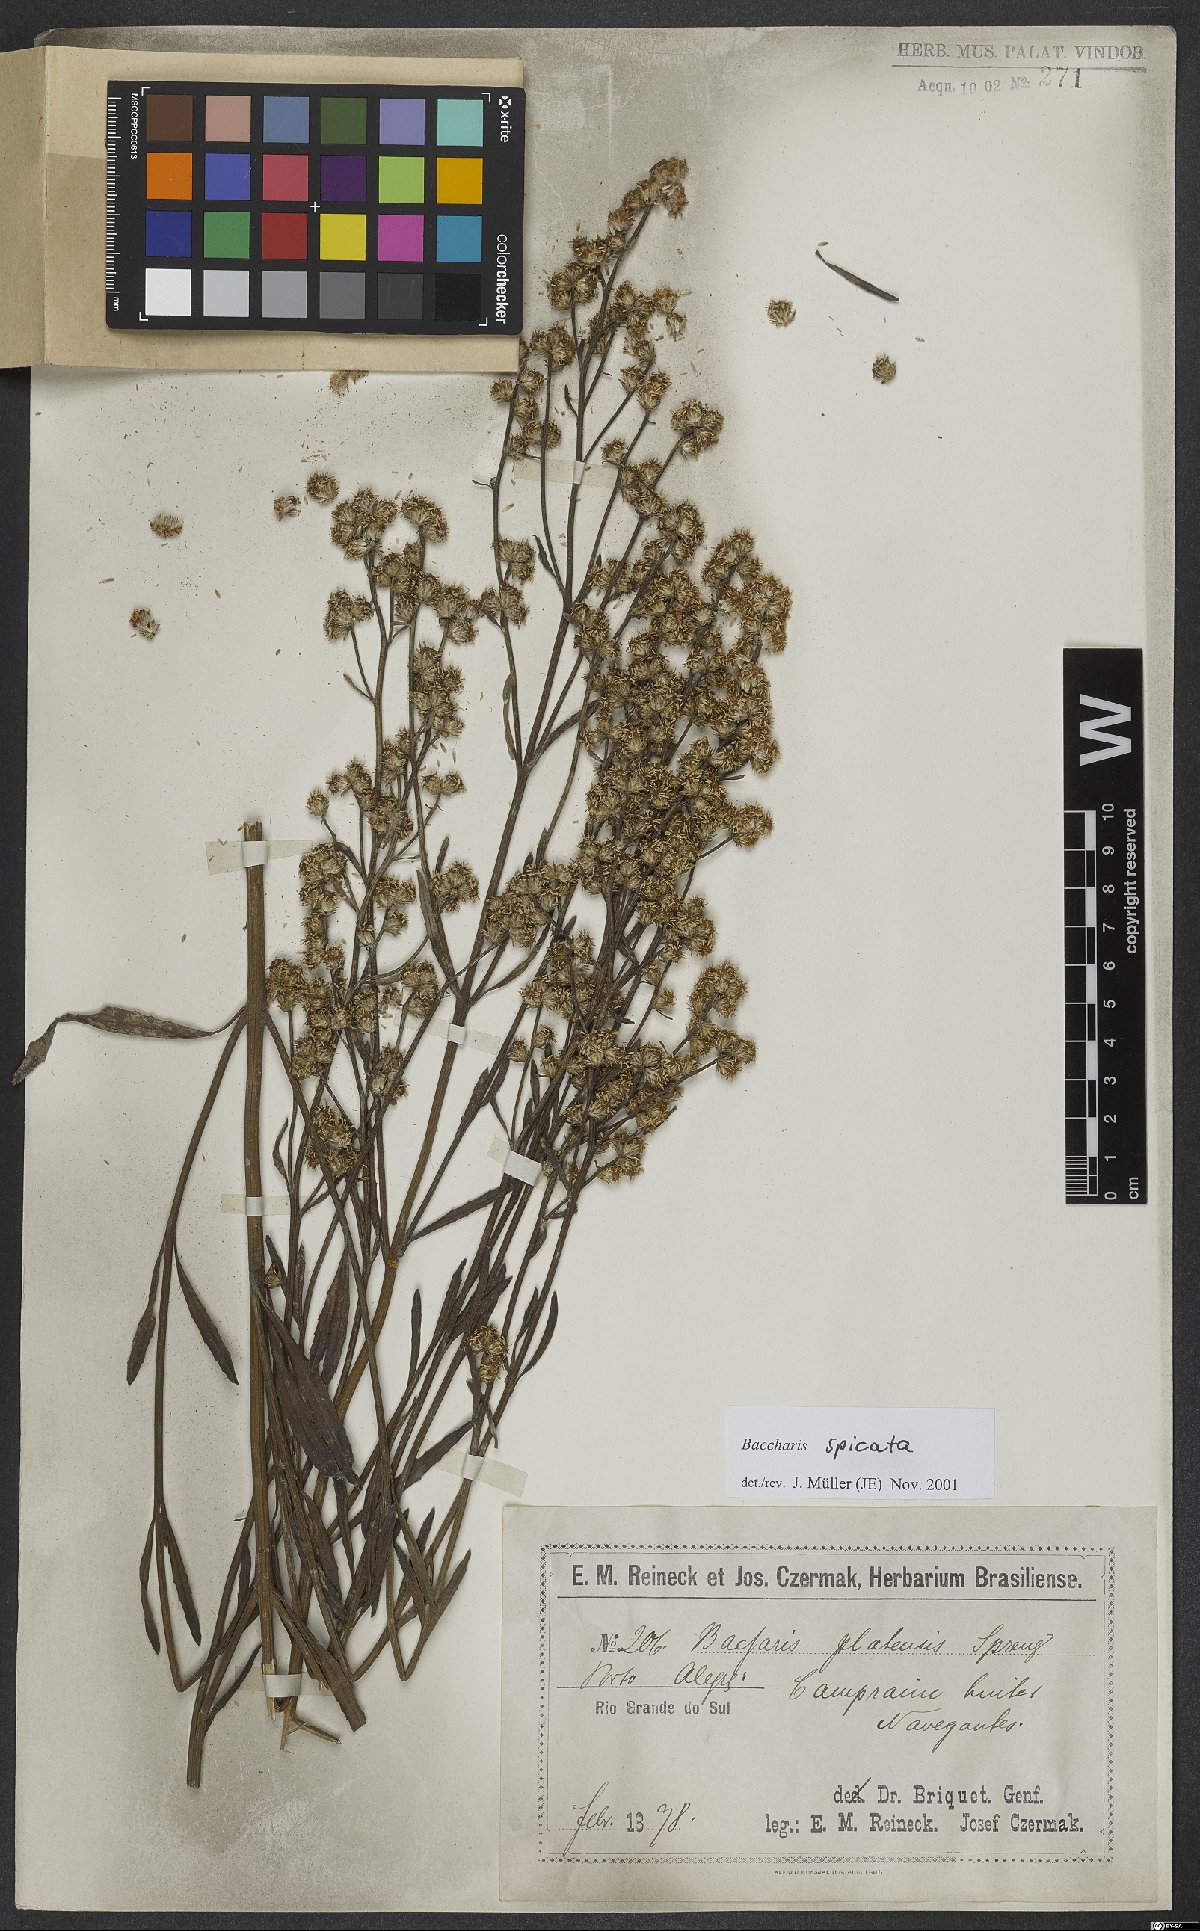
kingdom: Plantae
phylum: Tracheophyta
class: Magnoliopsida
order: Asterales
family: Asteraceae
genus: Baccharis
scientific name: Baccharis spicata
